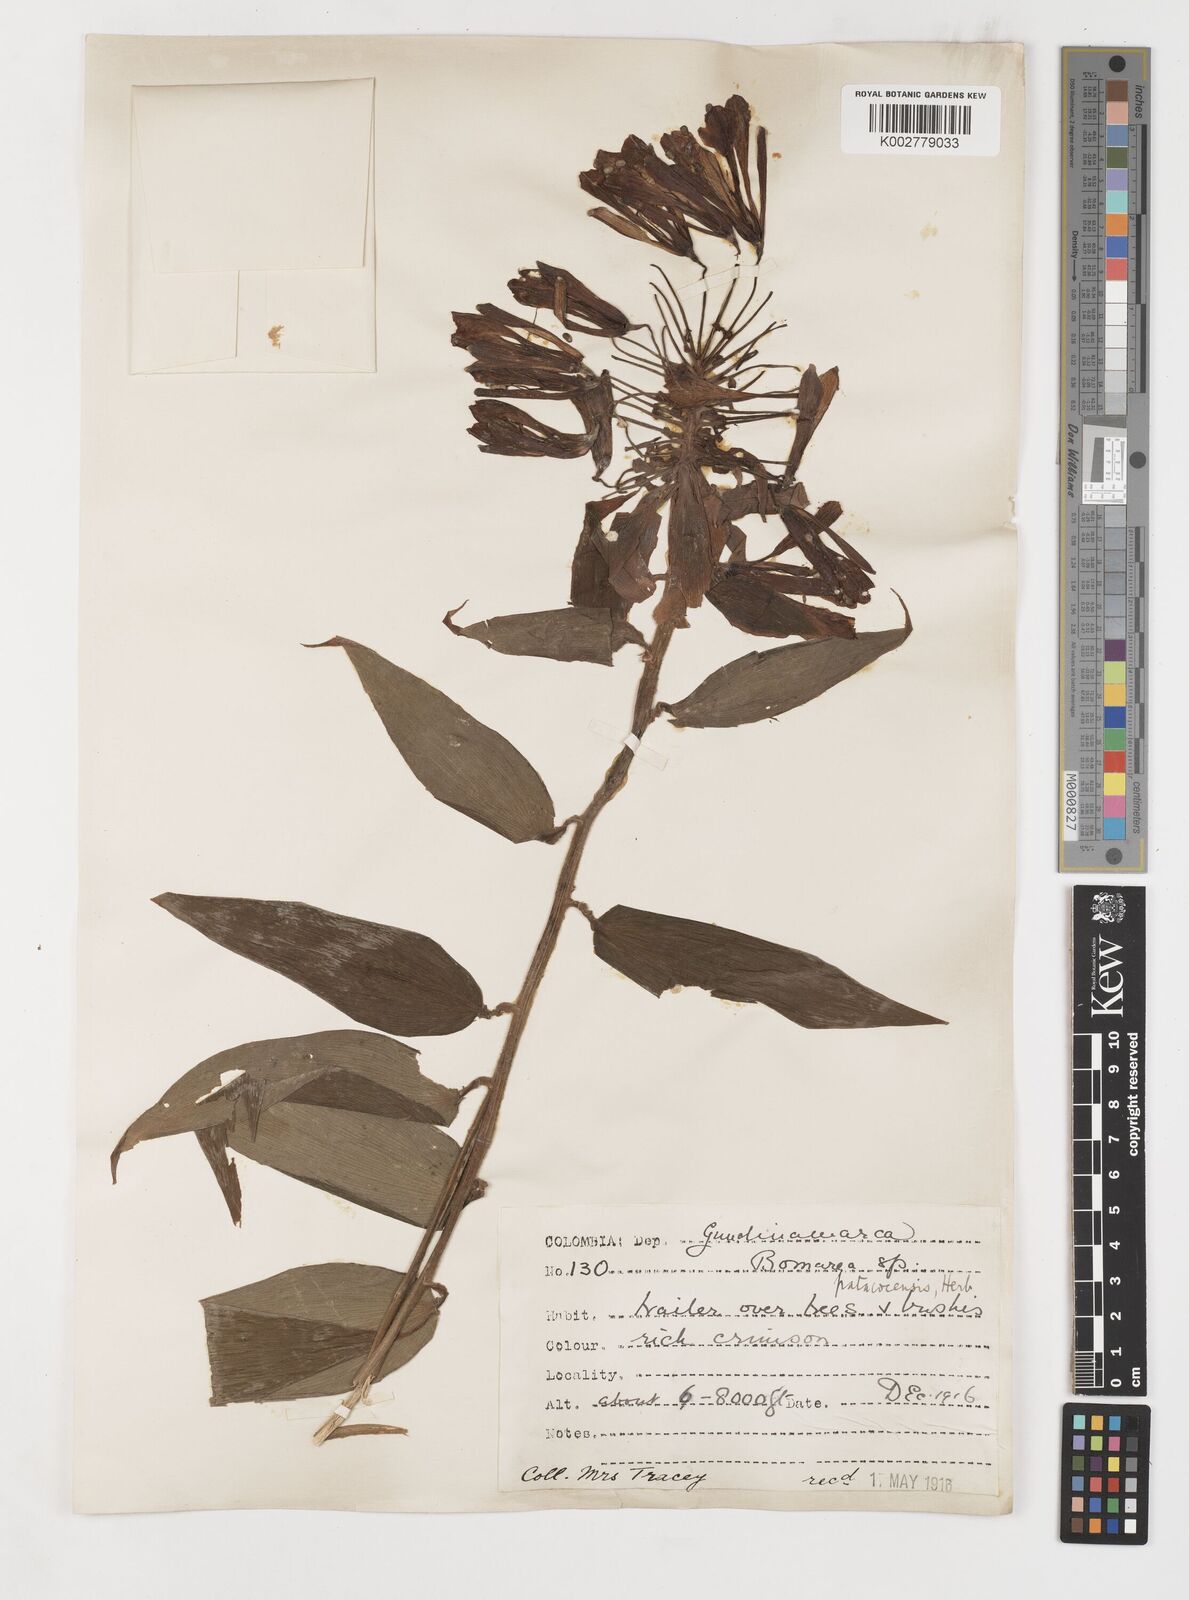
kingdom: Plantae
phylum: Tracheophyta
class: Liliopsida
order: Liliales
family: Alstroemeriaceae
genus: Bomarea
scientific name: Bomarea patinii
